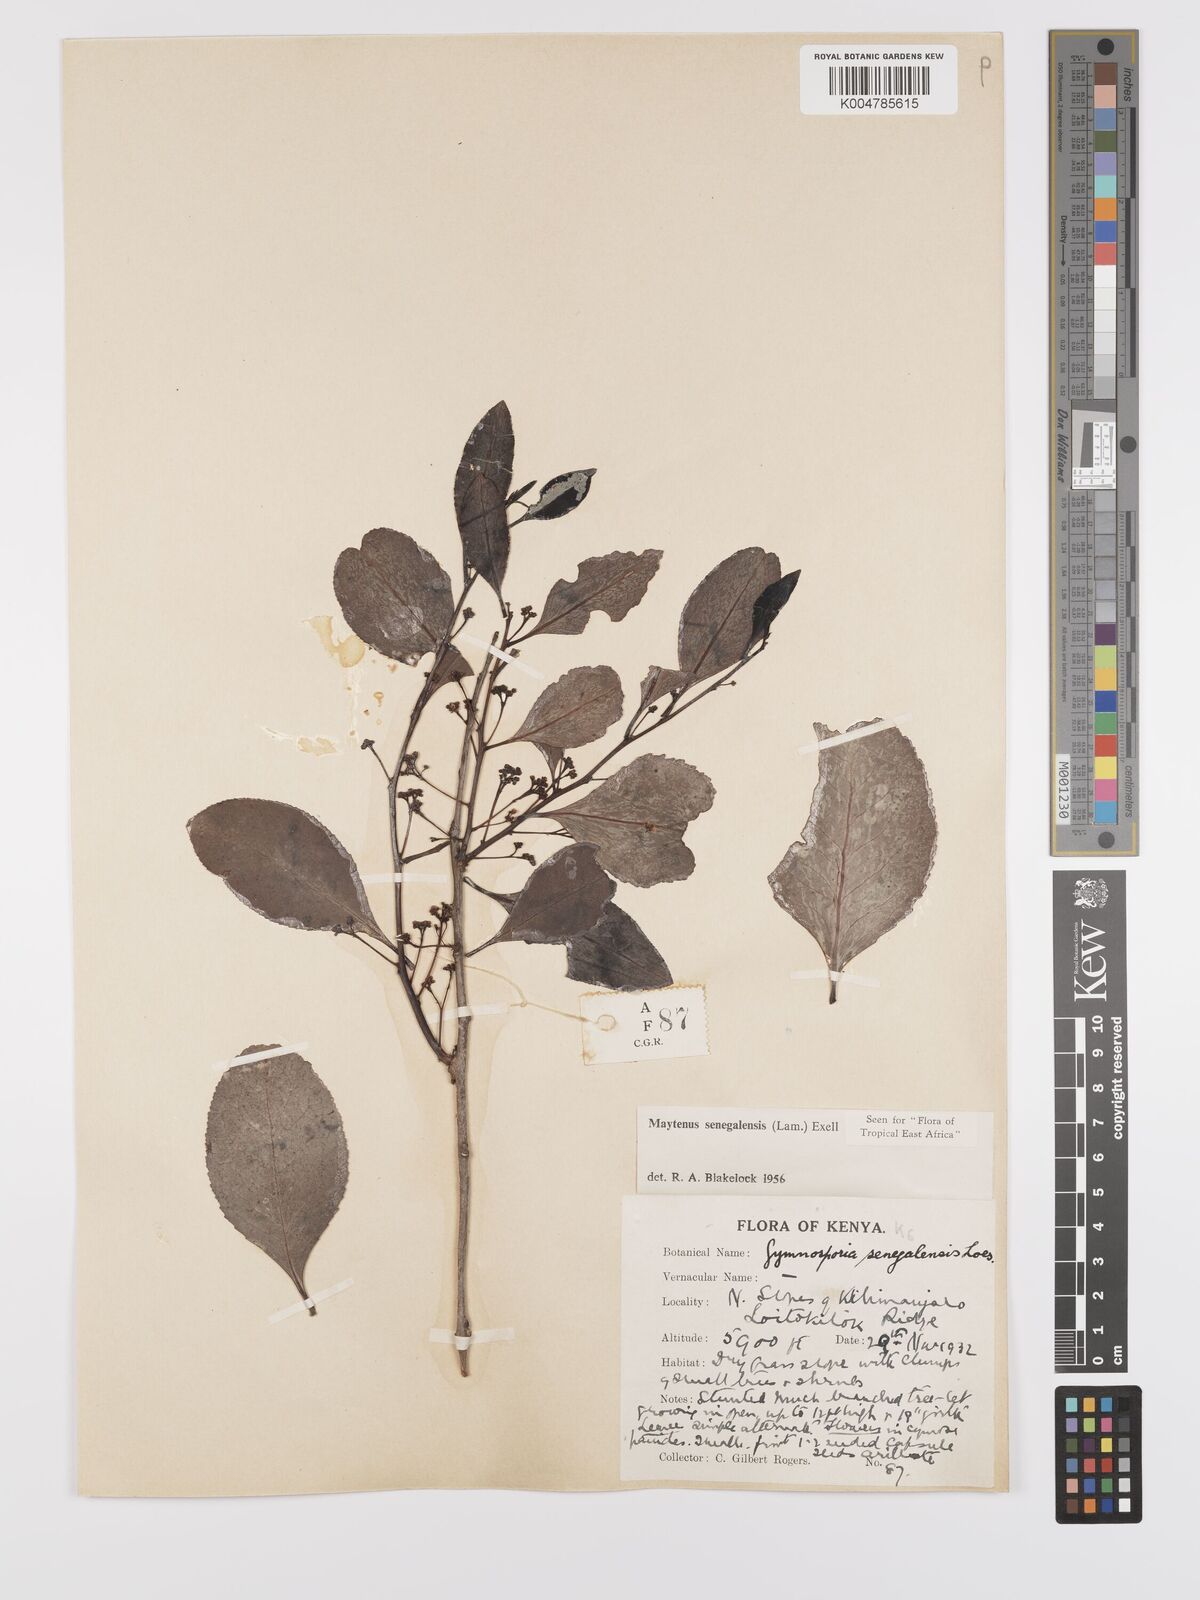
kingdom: Plantae
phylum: Tracheophyta
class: Magnoliopsida
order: Celastrales
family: Celastraceae
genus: Gymnosporia
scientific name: Gymnosporia senegalensis
